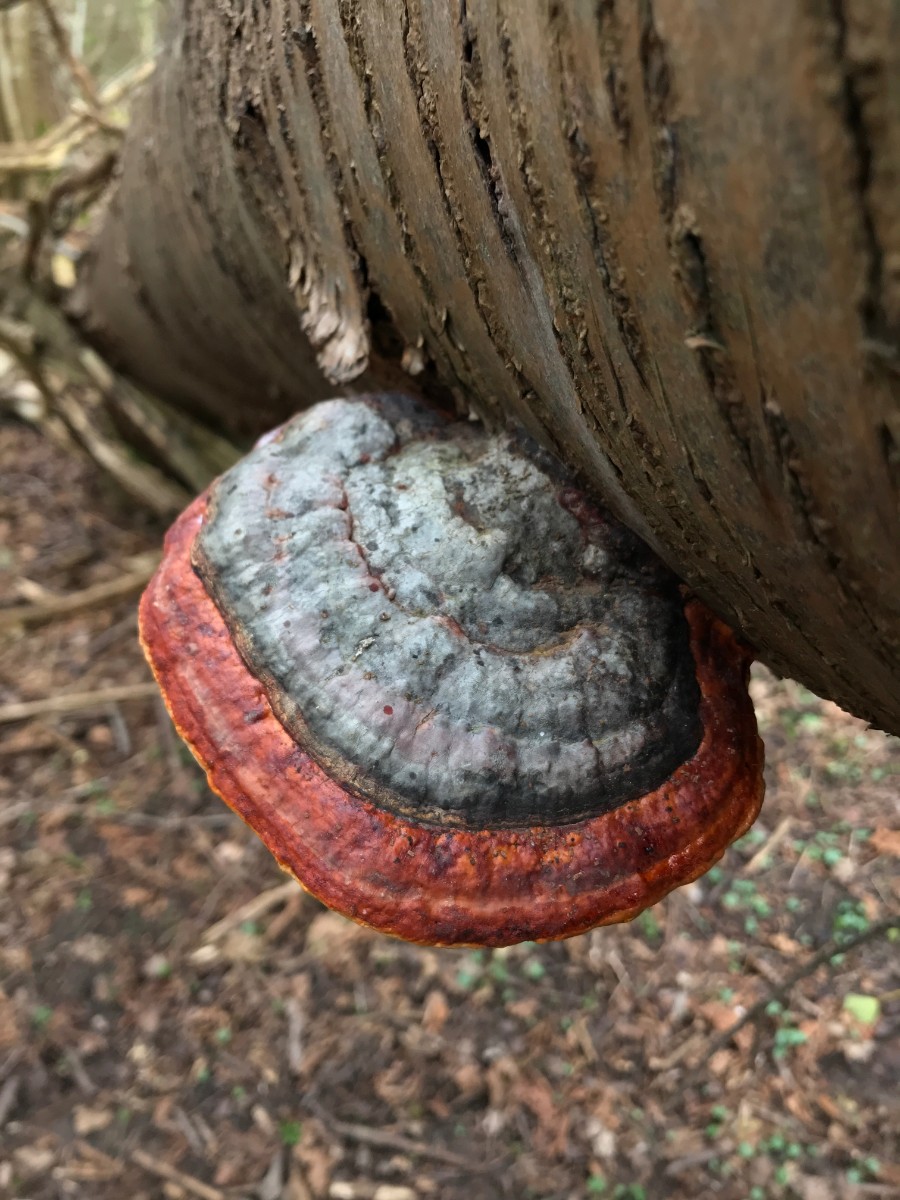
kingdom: Fungi
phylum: Basidiomycota
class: Agaricomycetes
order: Polyporales
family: Fomitopsidaceae
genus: Fomitopsis
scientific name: Fomitopsis pinicola
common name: randbæltet hovporesvamp
